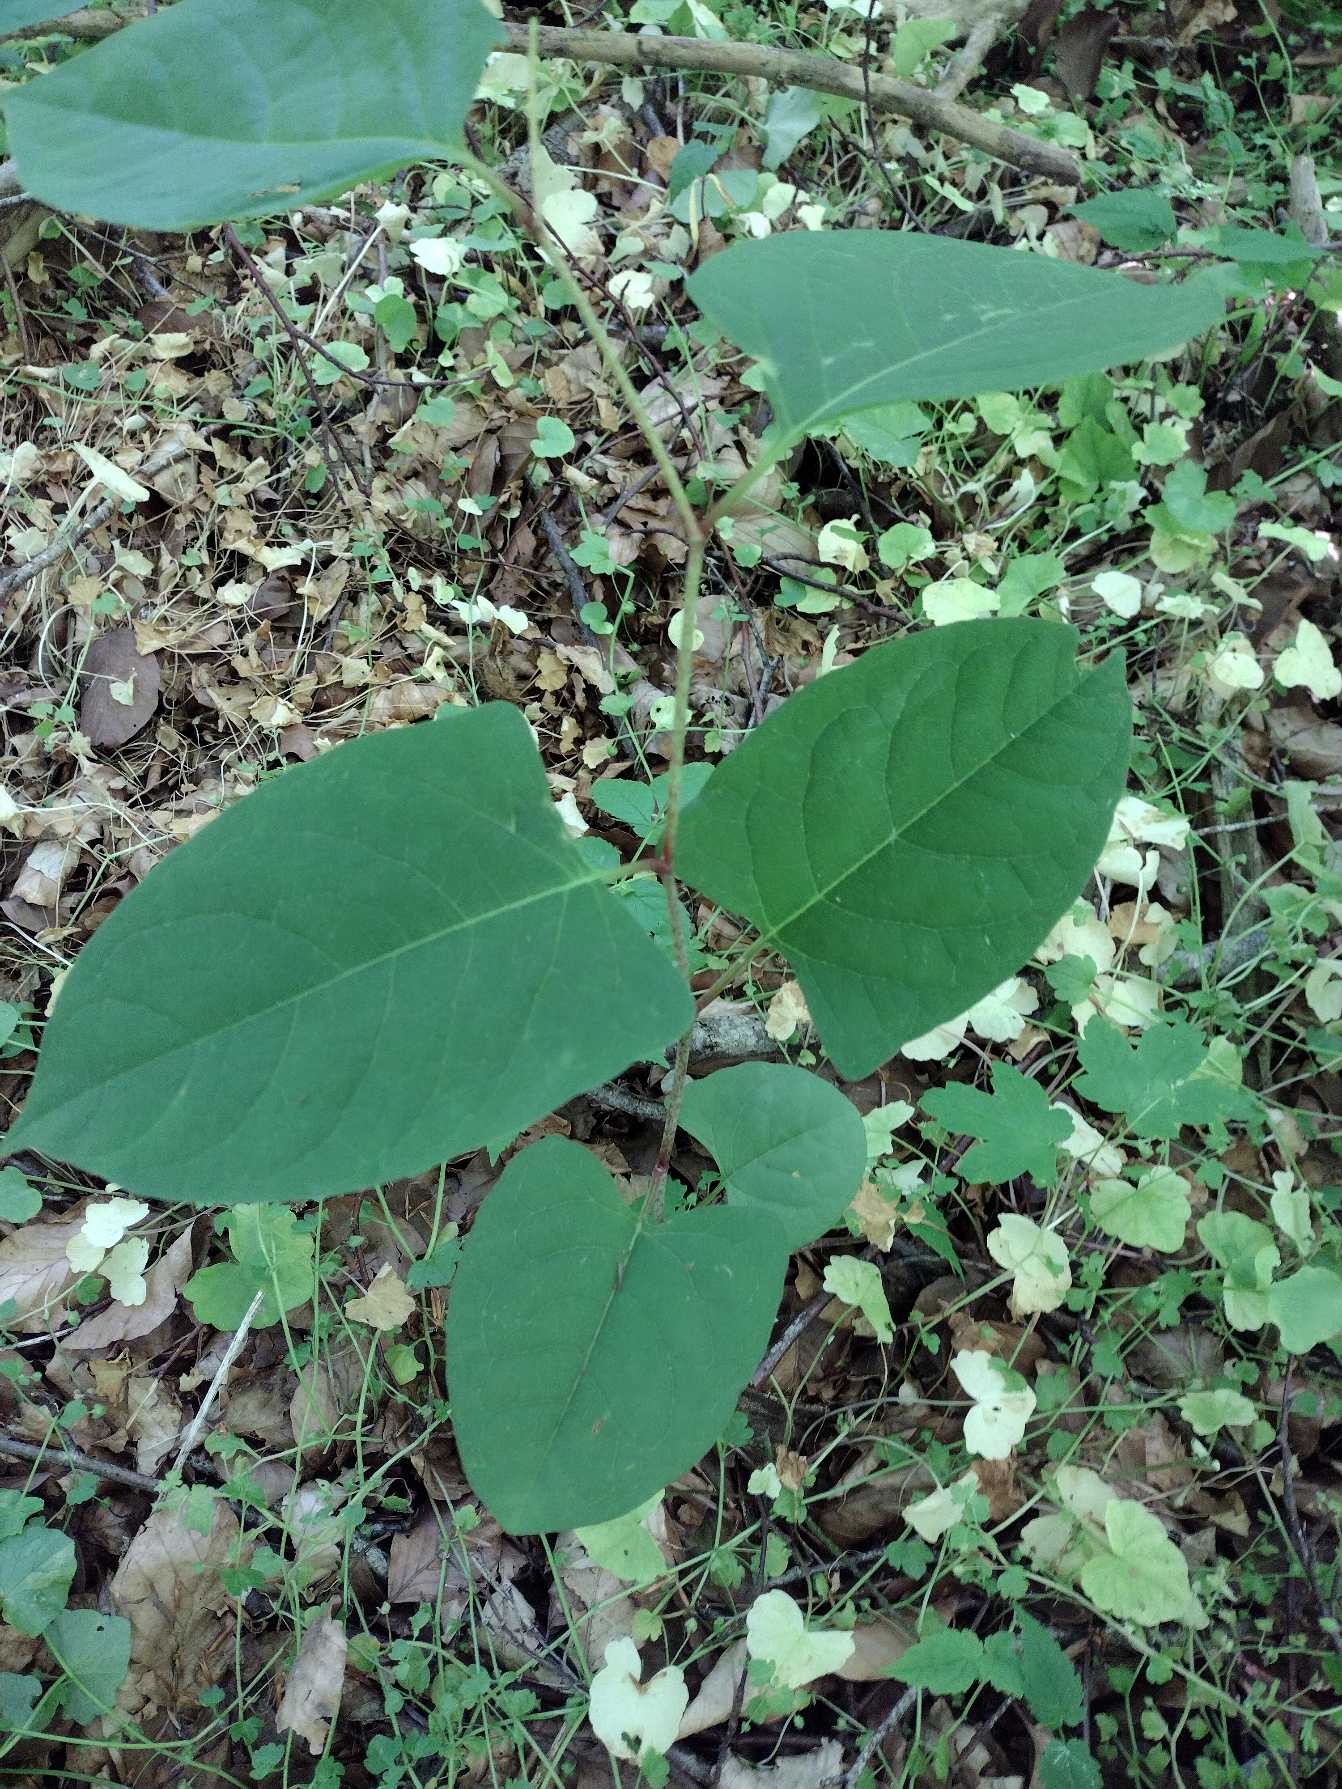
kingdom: Plantae
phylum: Tracheophyta
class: Magnoliopsida
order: Caryophyllales
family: Polygonaceae
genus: Reynoutria
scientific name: Reynoutria japonica
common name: Japan-pileurt
